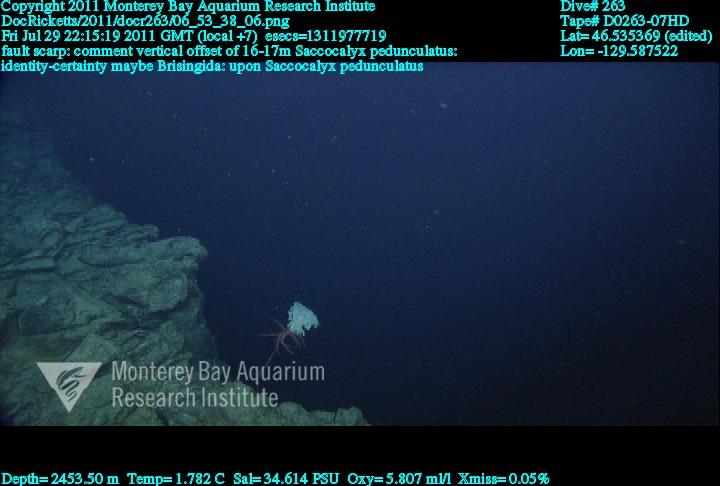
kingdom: Animalia
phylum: Porifera
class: Hexactinellida
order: Lyssacinosida
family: Euplectellidae
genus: Saccocalyx
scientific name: Saccocalyx pedunculatus
